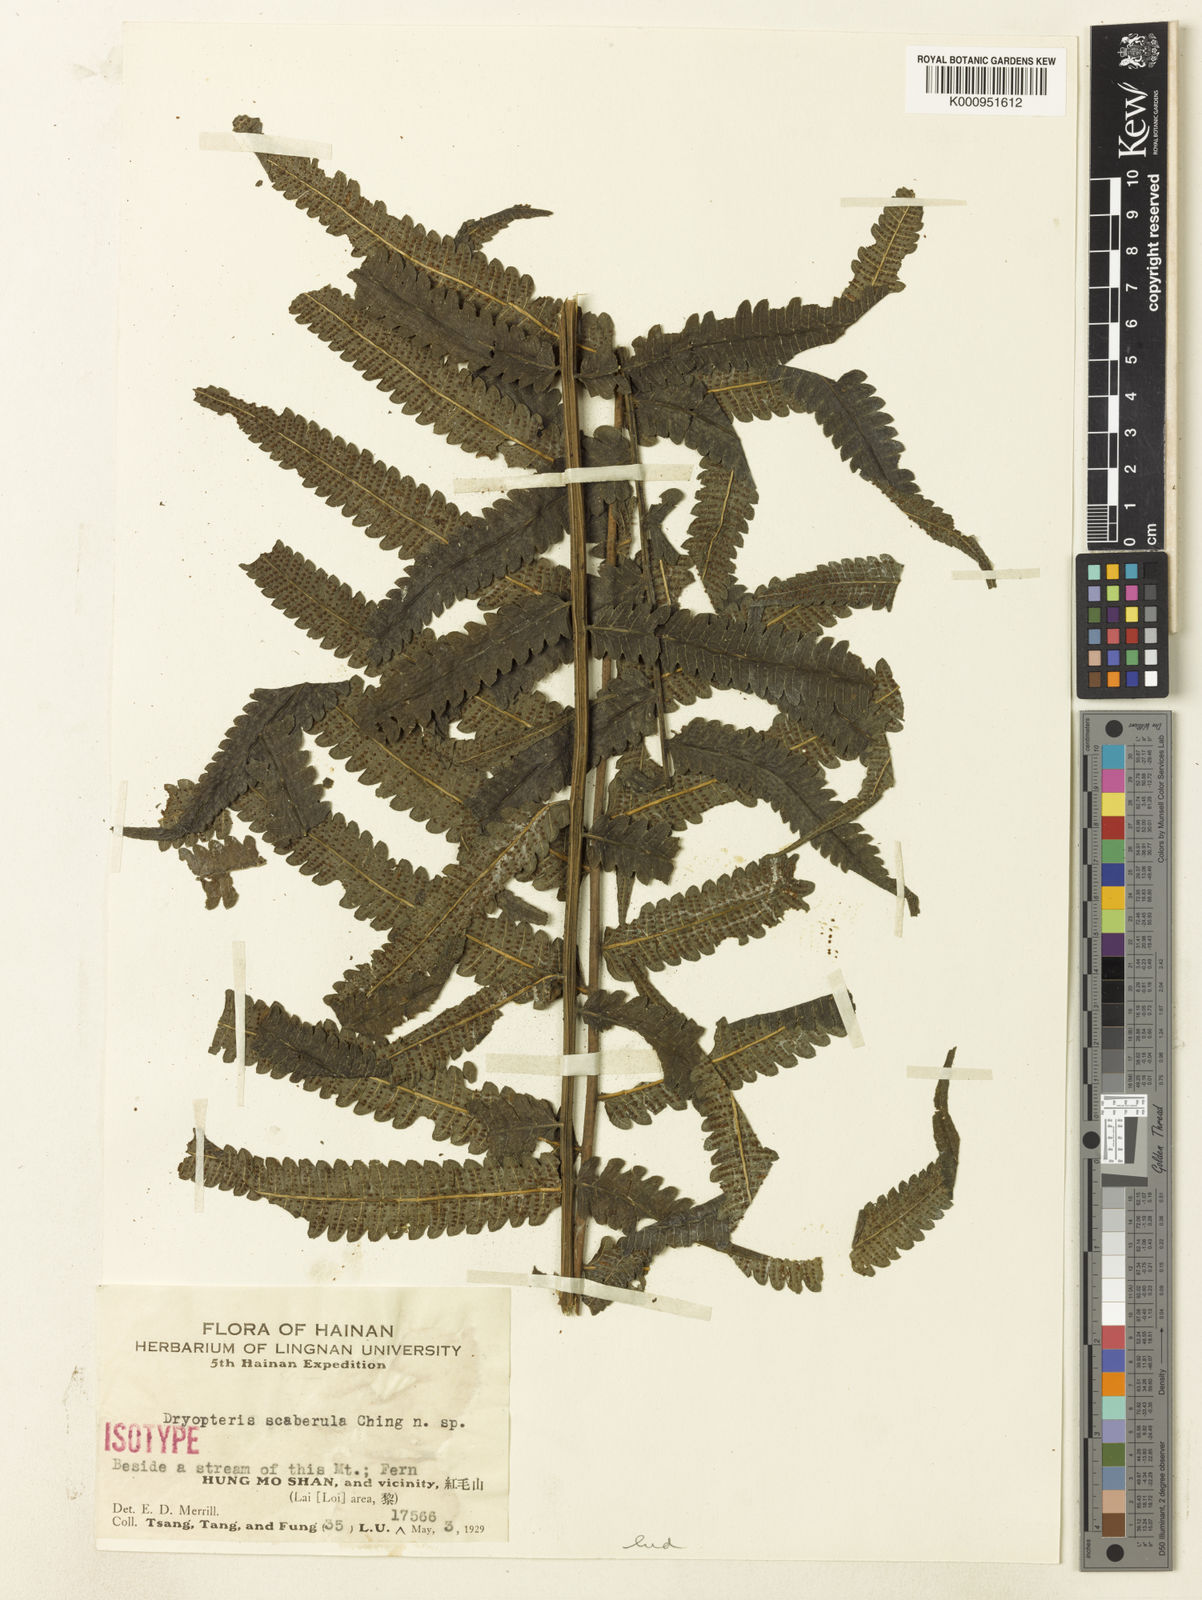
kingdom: Plantae
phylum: Tracheophyta
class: Polypodiopsida
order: Polypodiales
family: Thelypteridaceae
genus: Christella
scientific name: Christella scaberula
